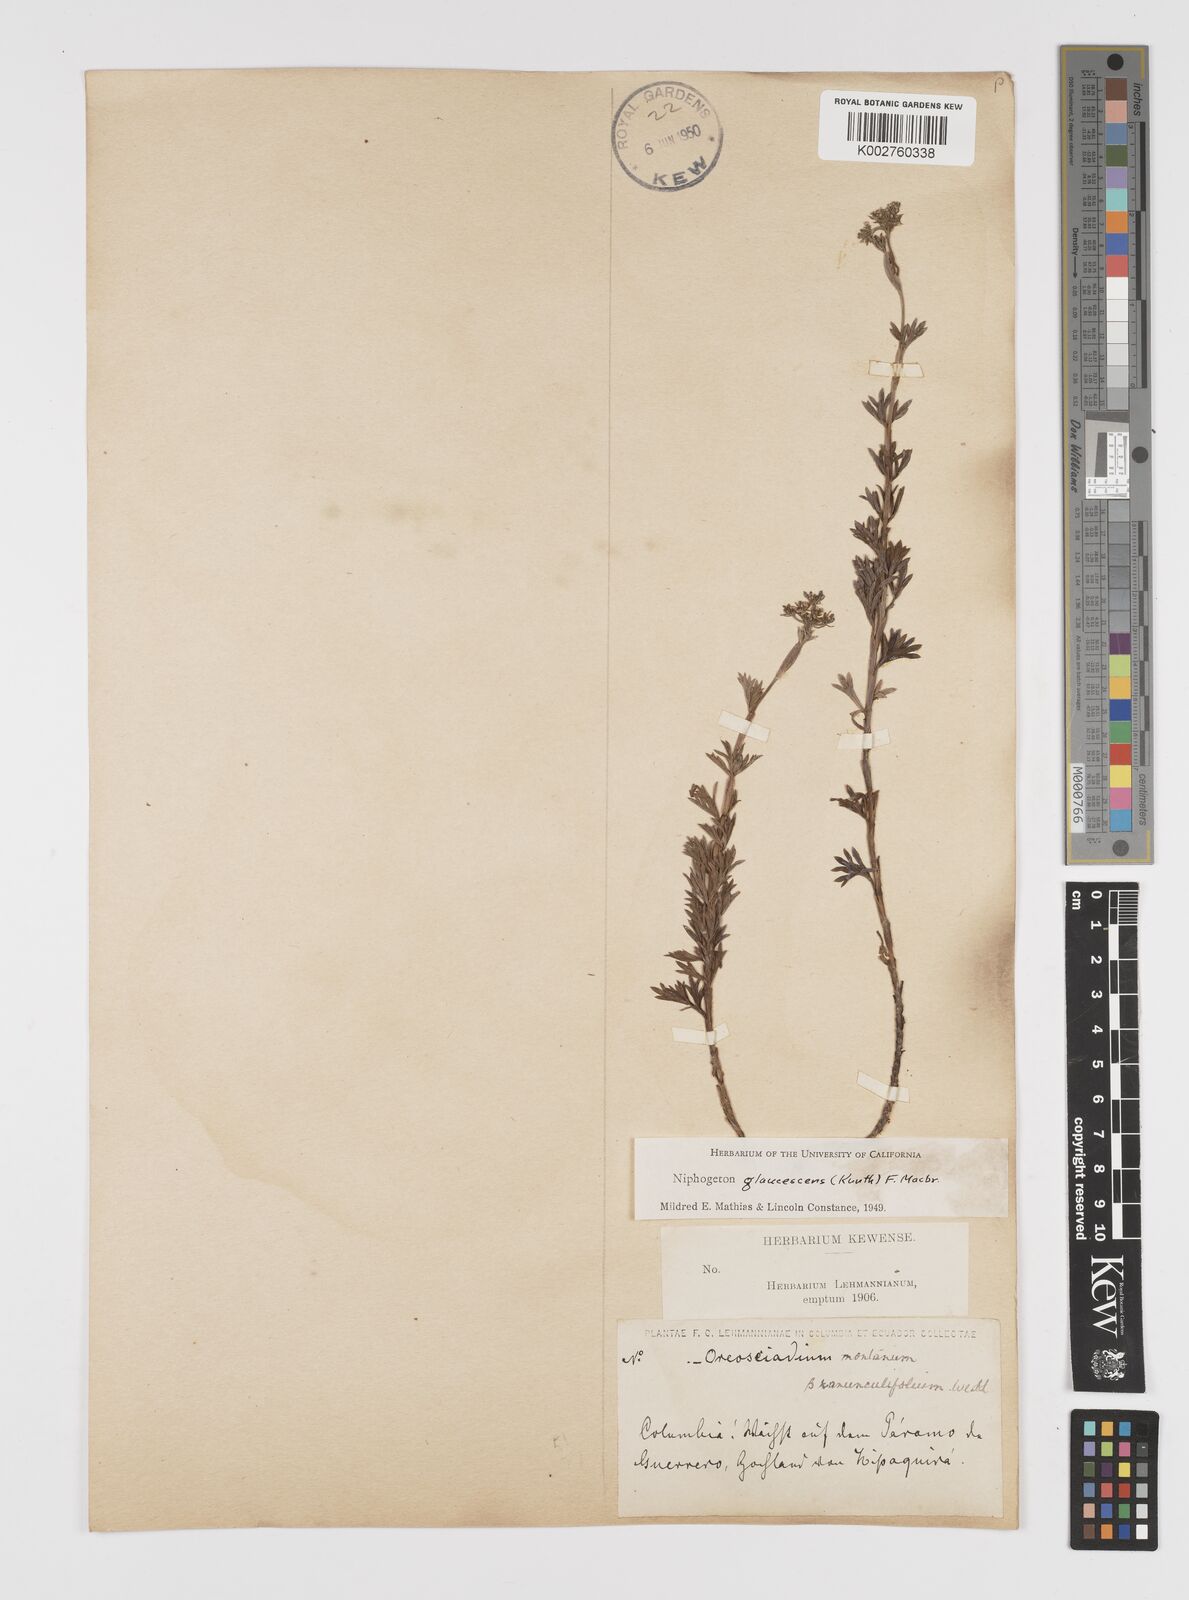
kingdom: Plantae
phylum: Tracheophyta
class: Magnoliopsida
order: Apiales
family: Apiaceae
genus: Niphogeton
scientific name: Niphogeton glaucescens
